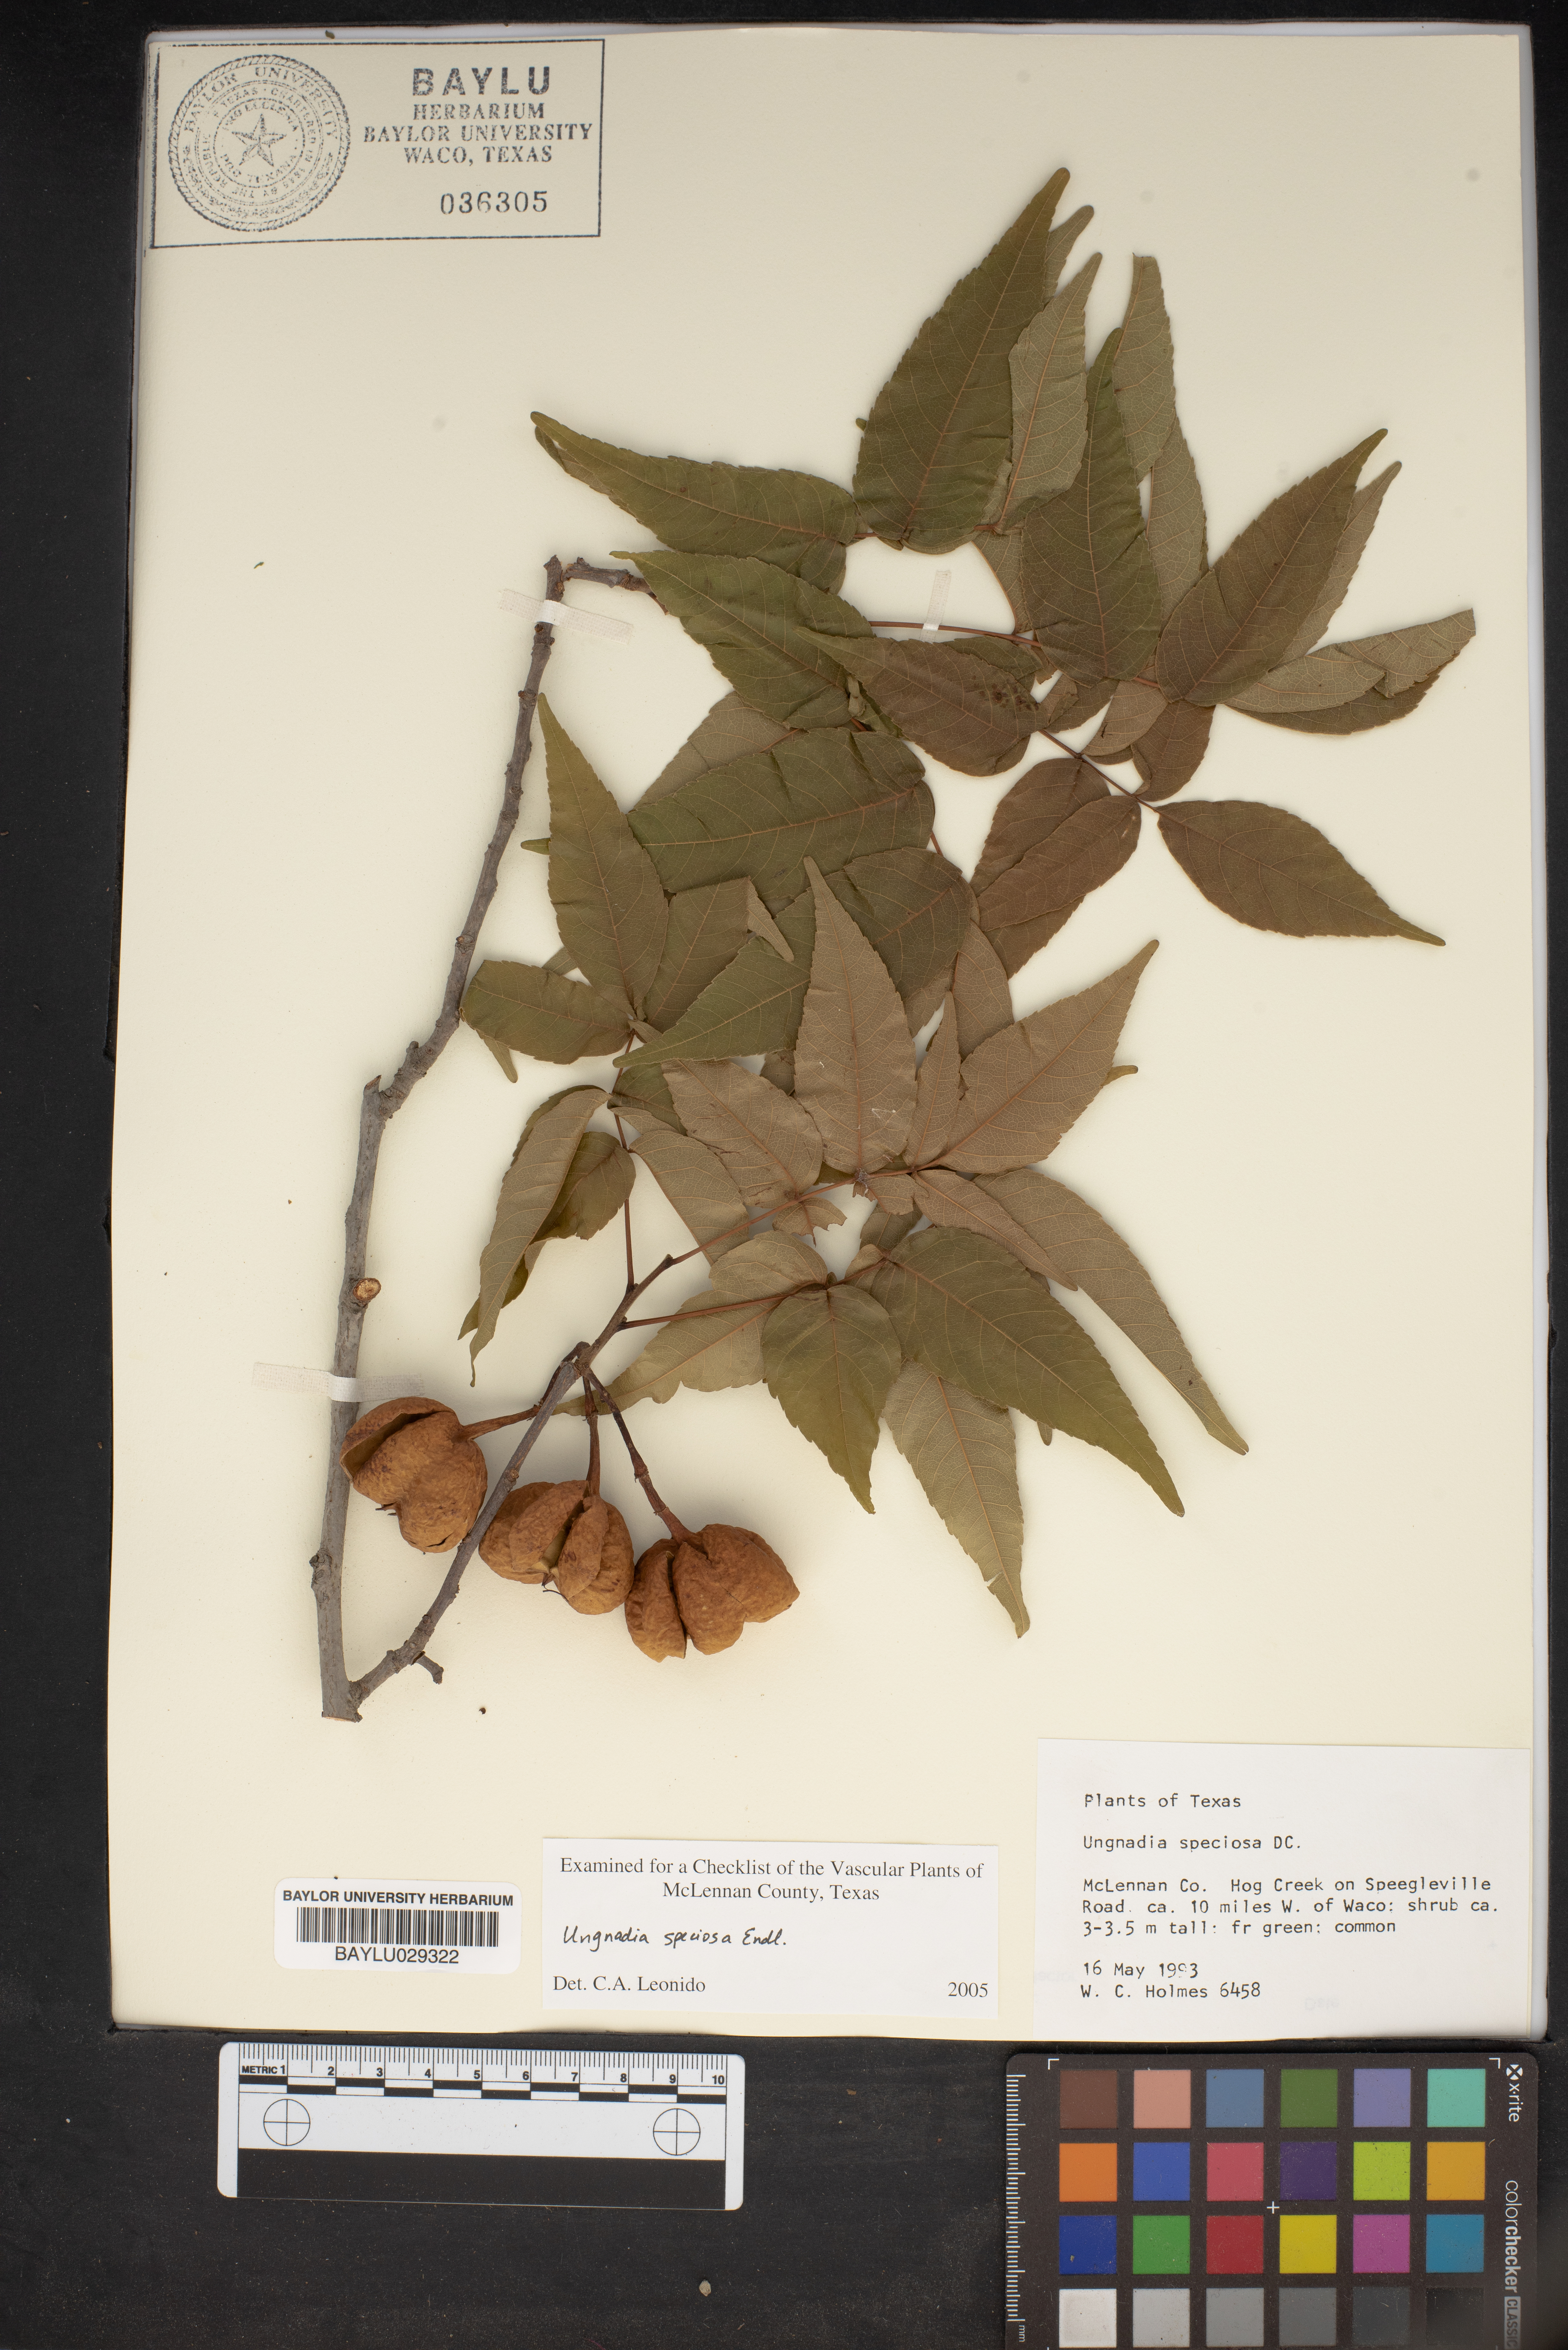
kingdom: Plantae
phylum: Tracheophyta
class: Magnoliopsida
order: Sapindales
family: Sapindaceae
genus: Ungnadia
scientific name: Ungnadia speciosa
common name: Texas-buckeye
